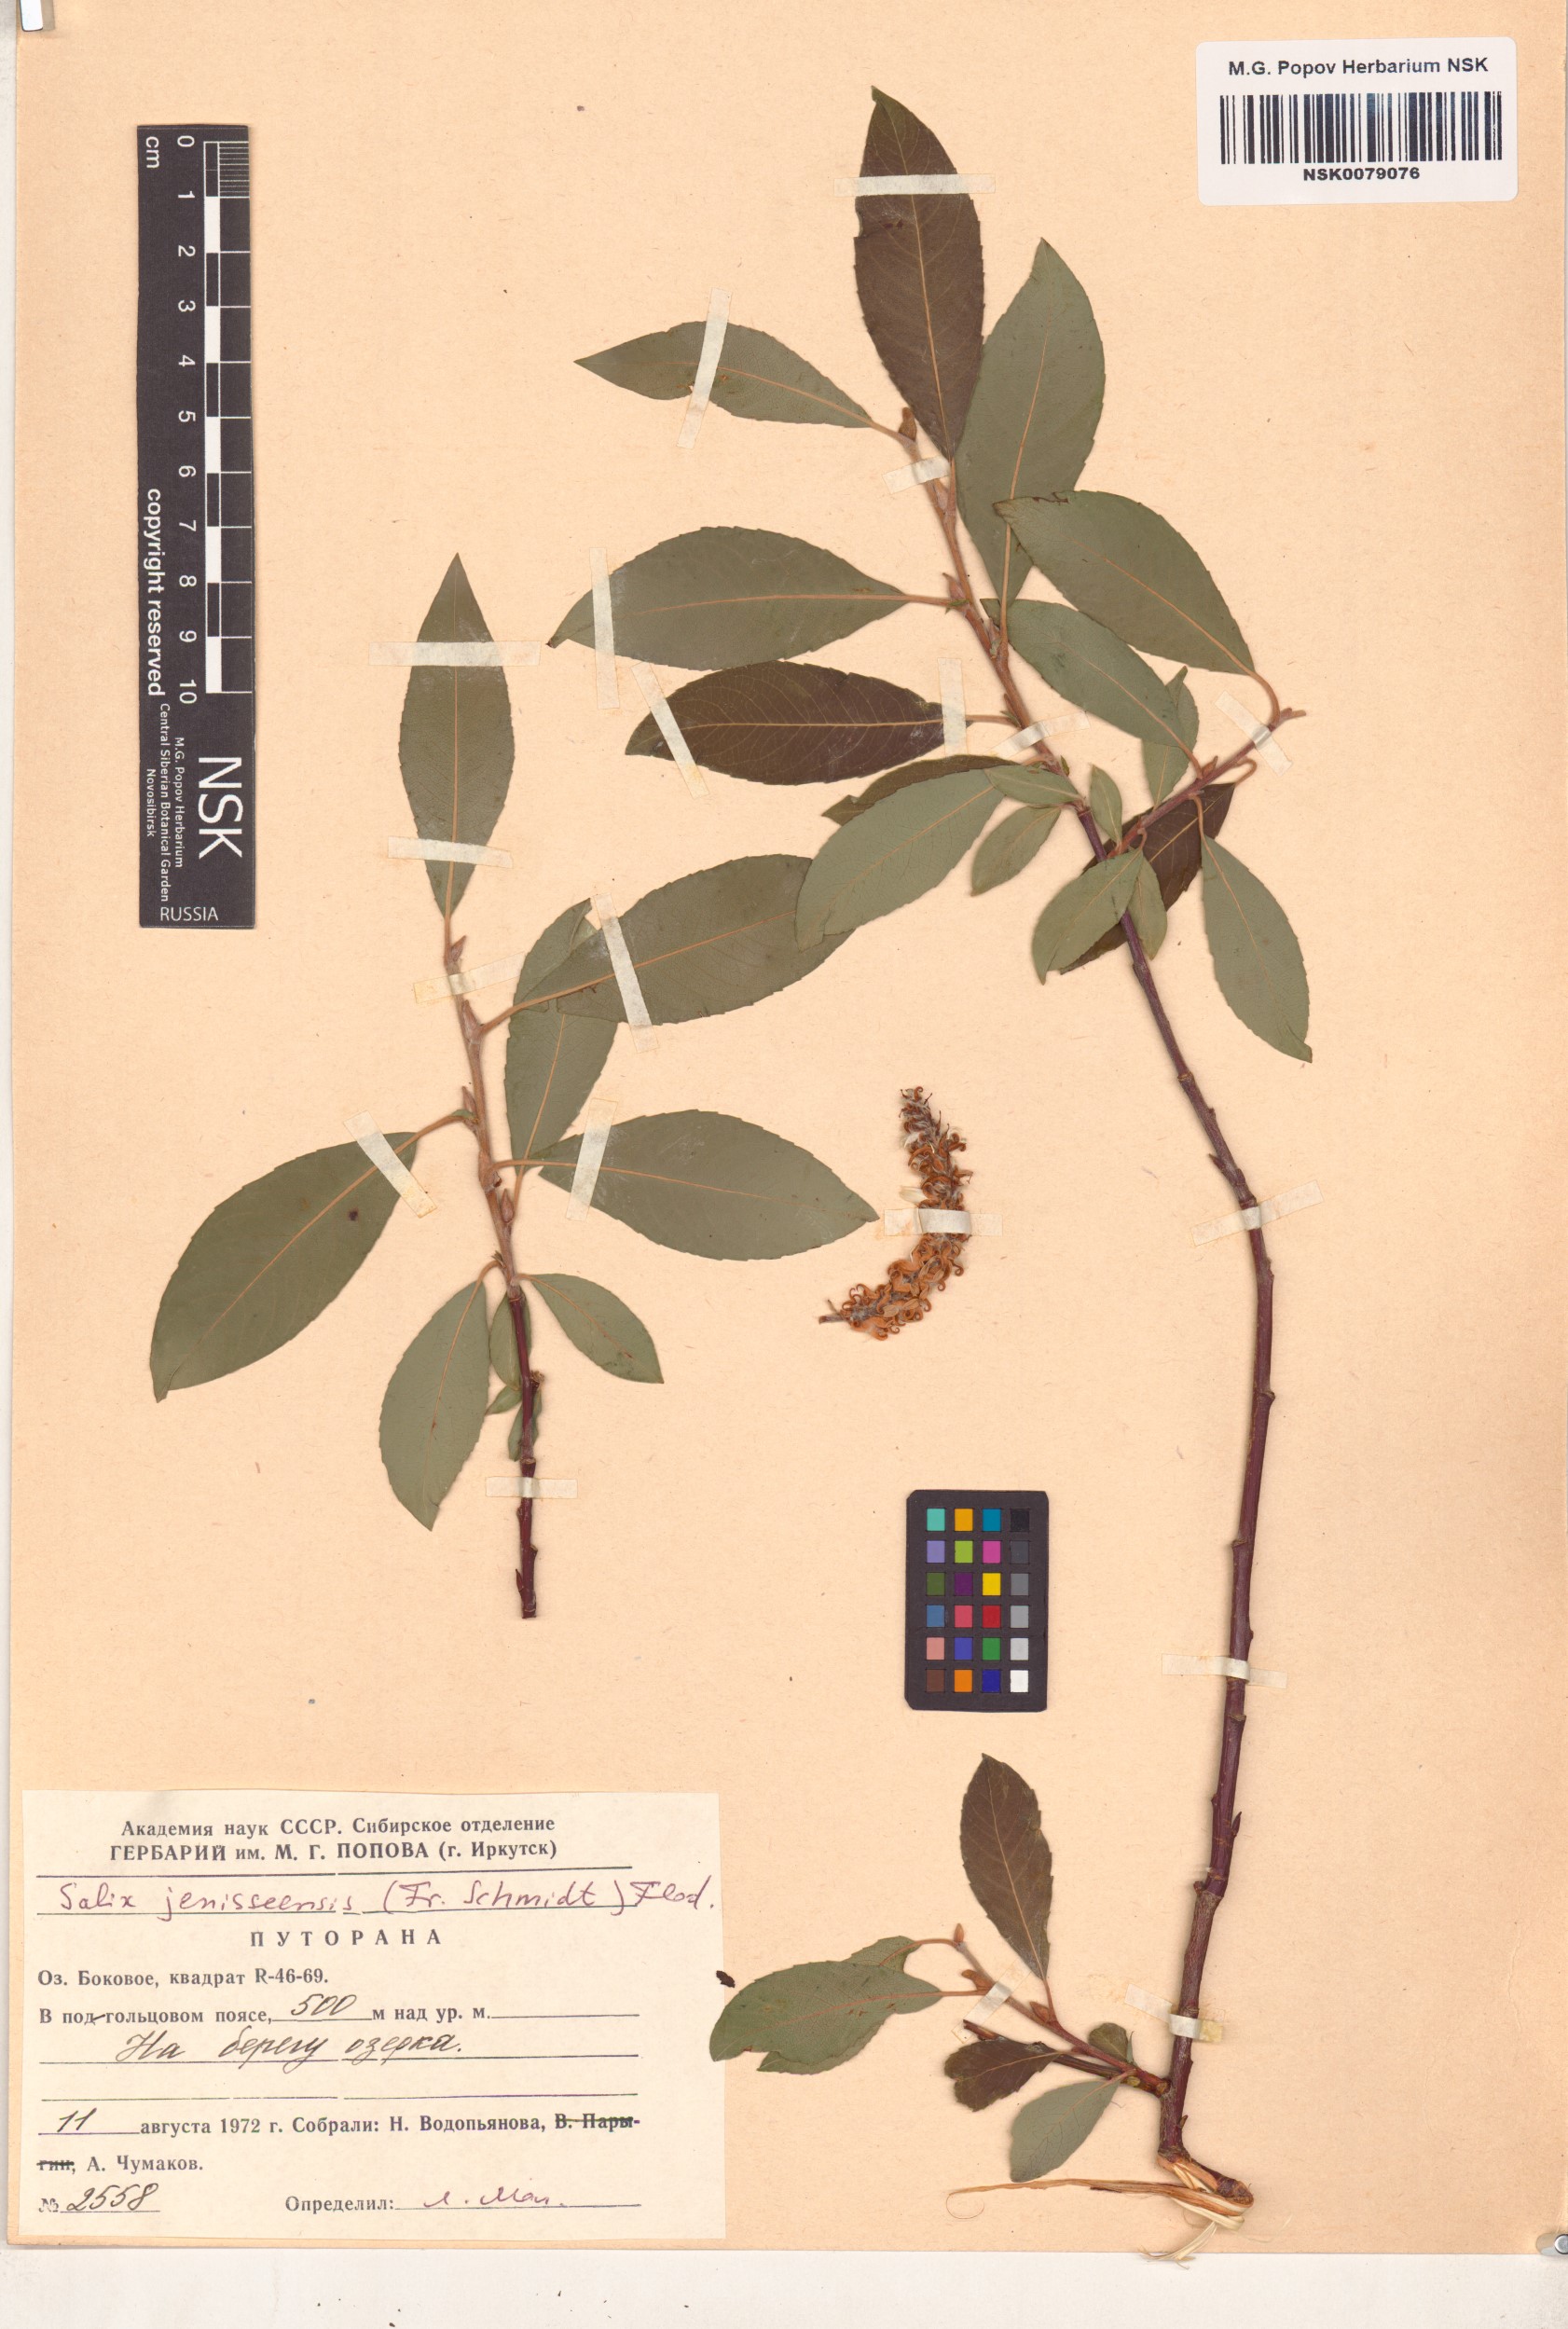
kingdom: Plantae
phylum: Tracheophyta
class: Magnoliopsida
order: Malpighiales
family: Salicaceae
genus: Salix
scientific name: Salix jenisseensis
